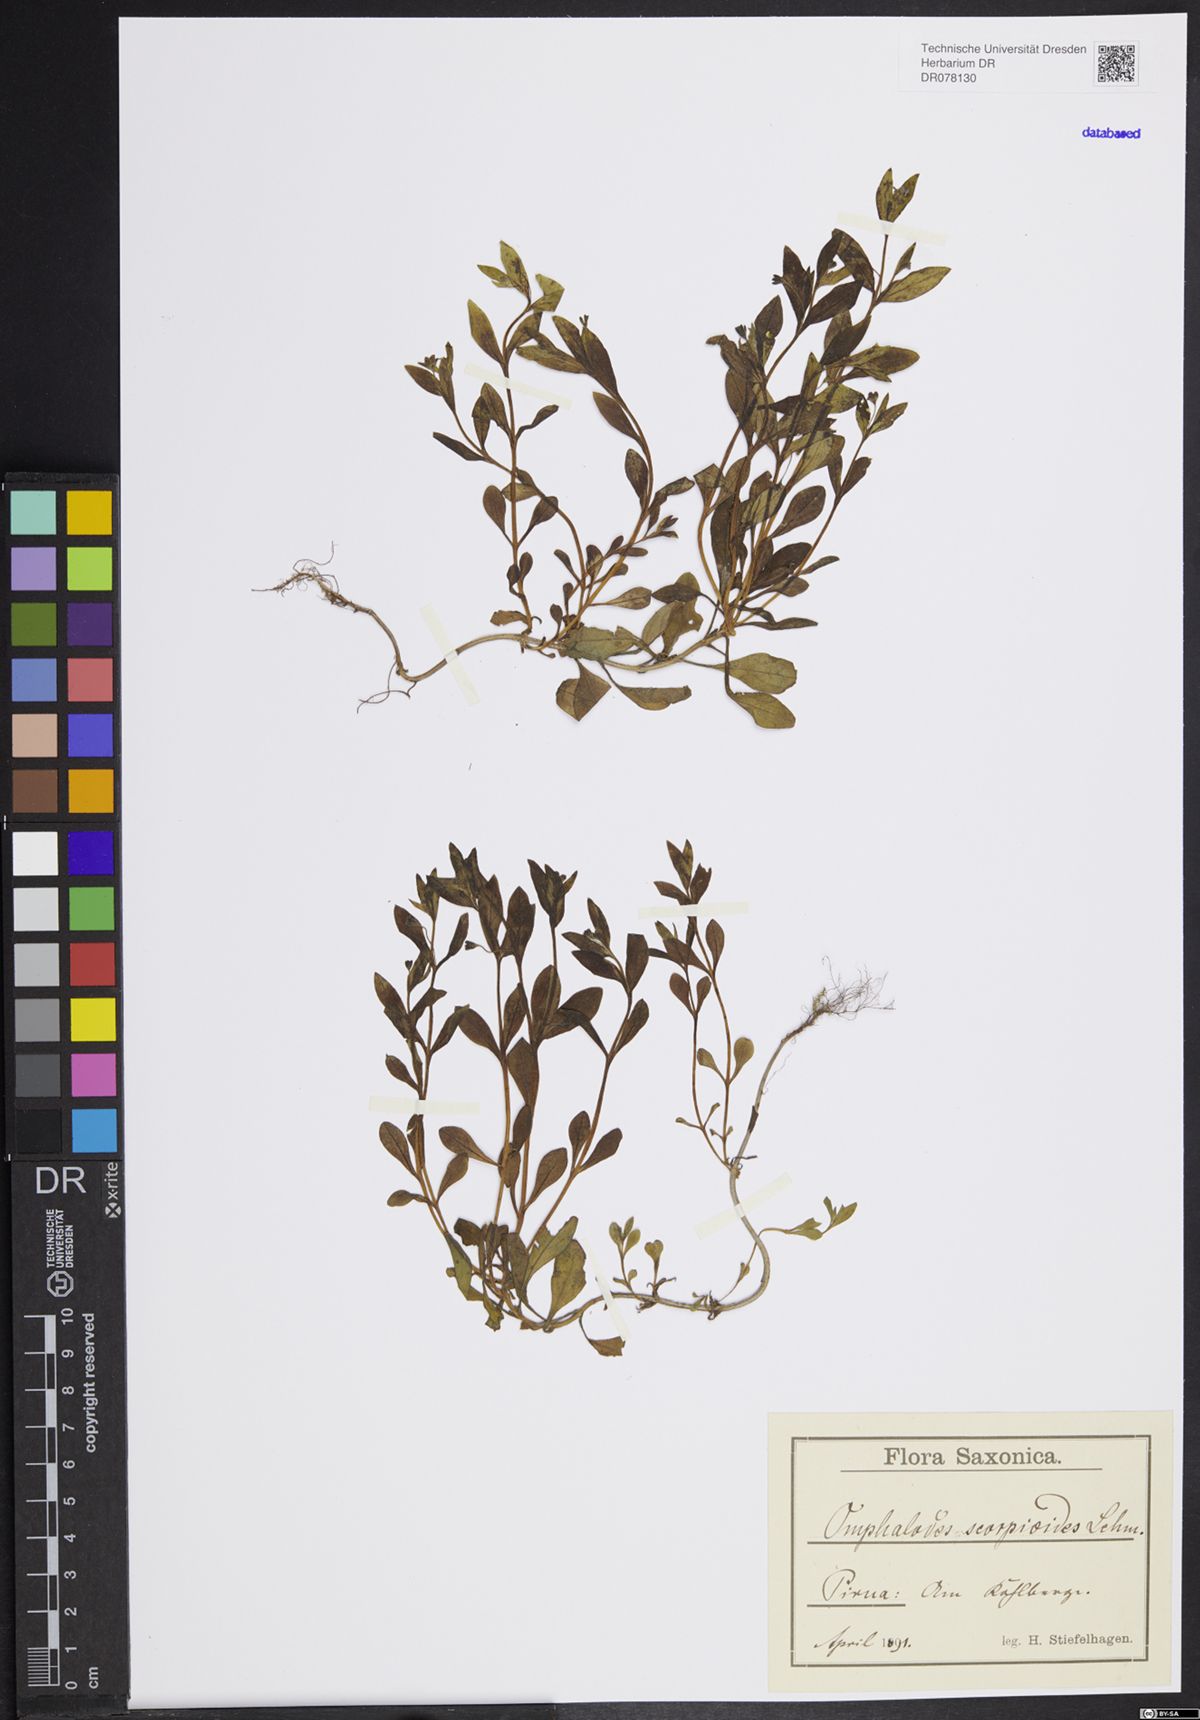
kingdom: Plantae
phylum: Tracheophyta
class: Magnoliopsida
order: Boraginales
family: Boraginaceae
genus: Memoremea
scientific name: Memoremea scorpioides
